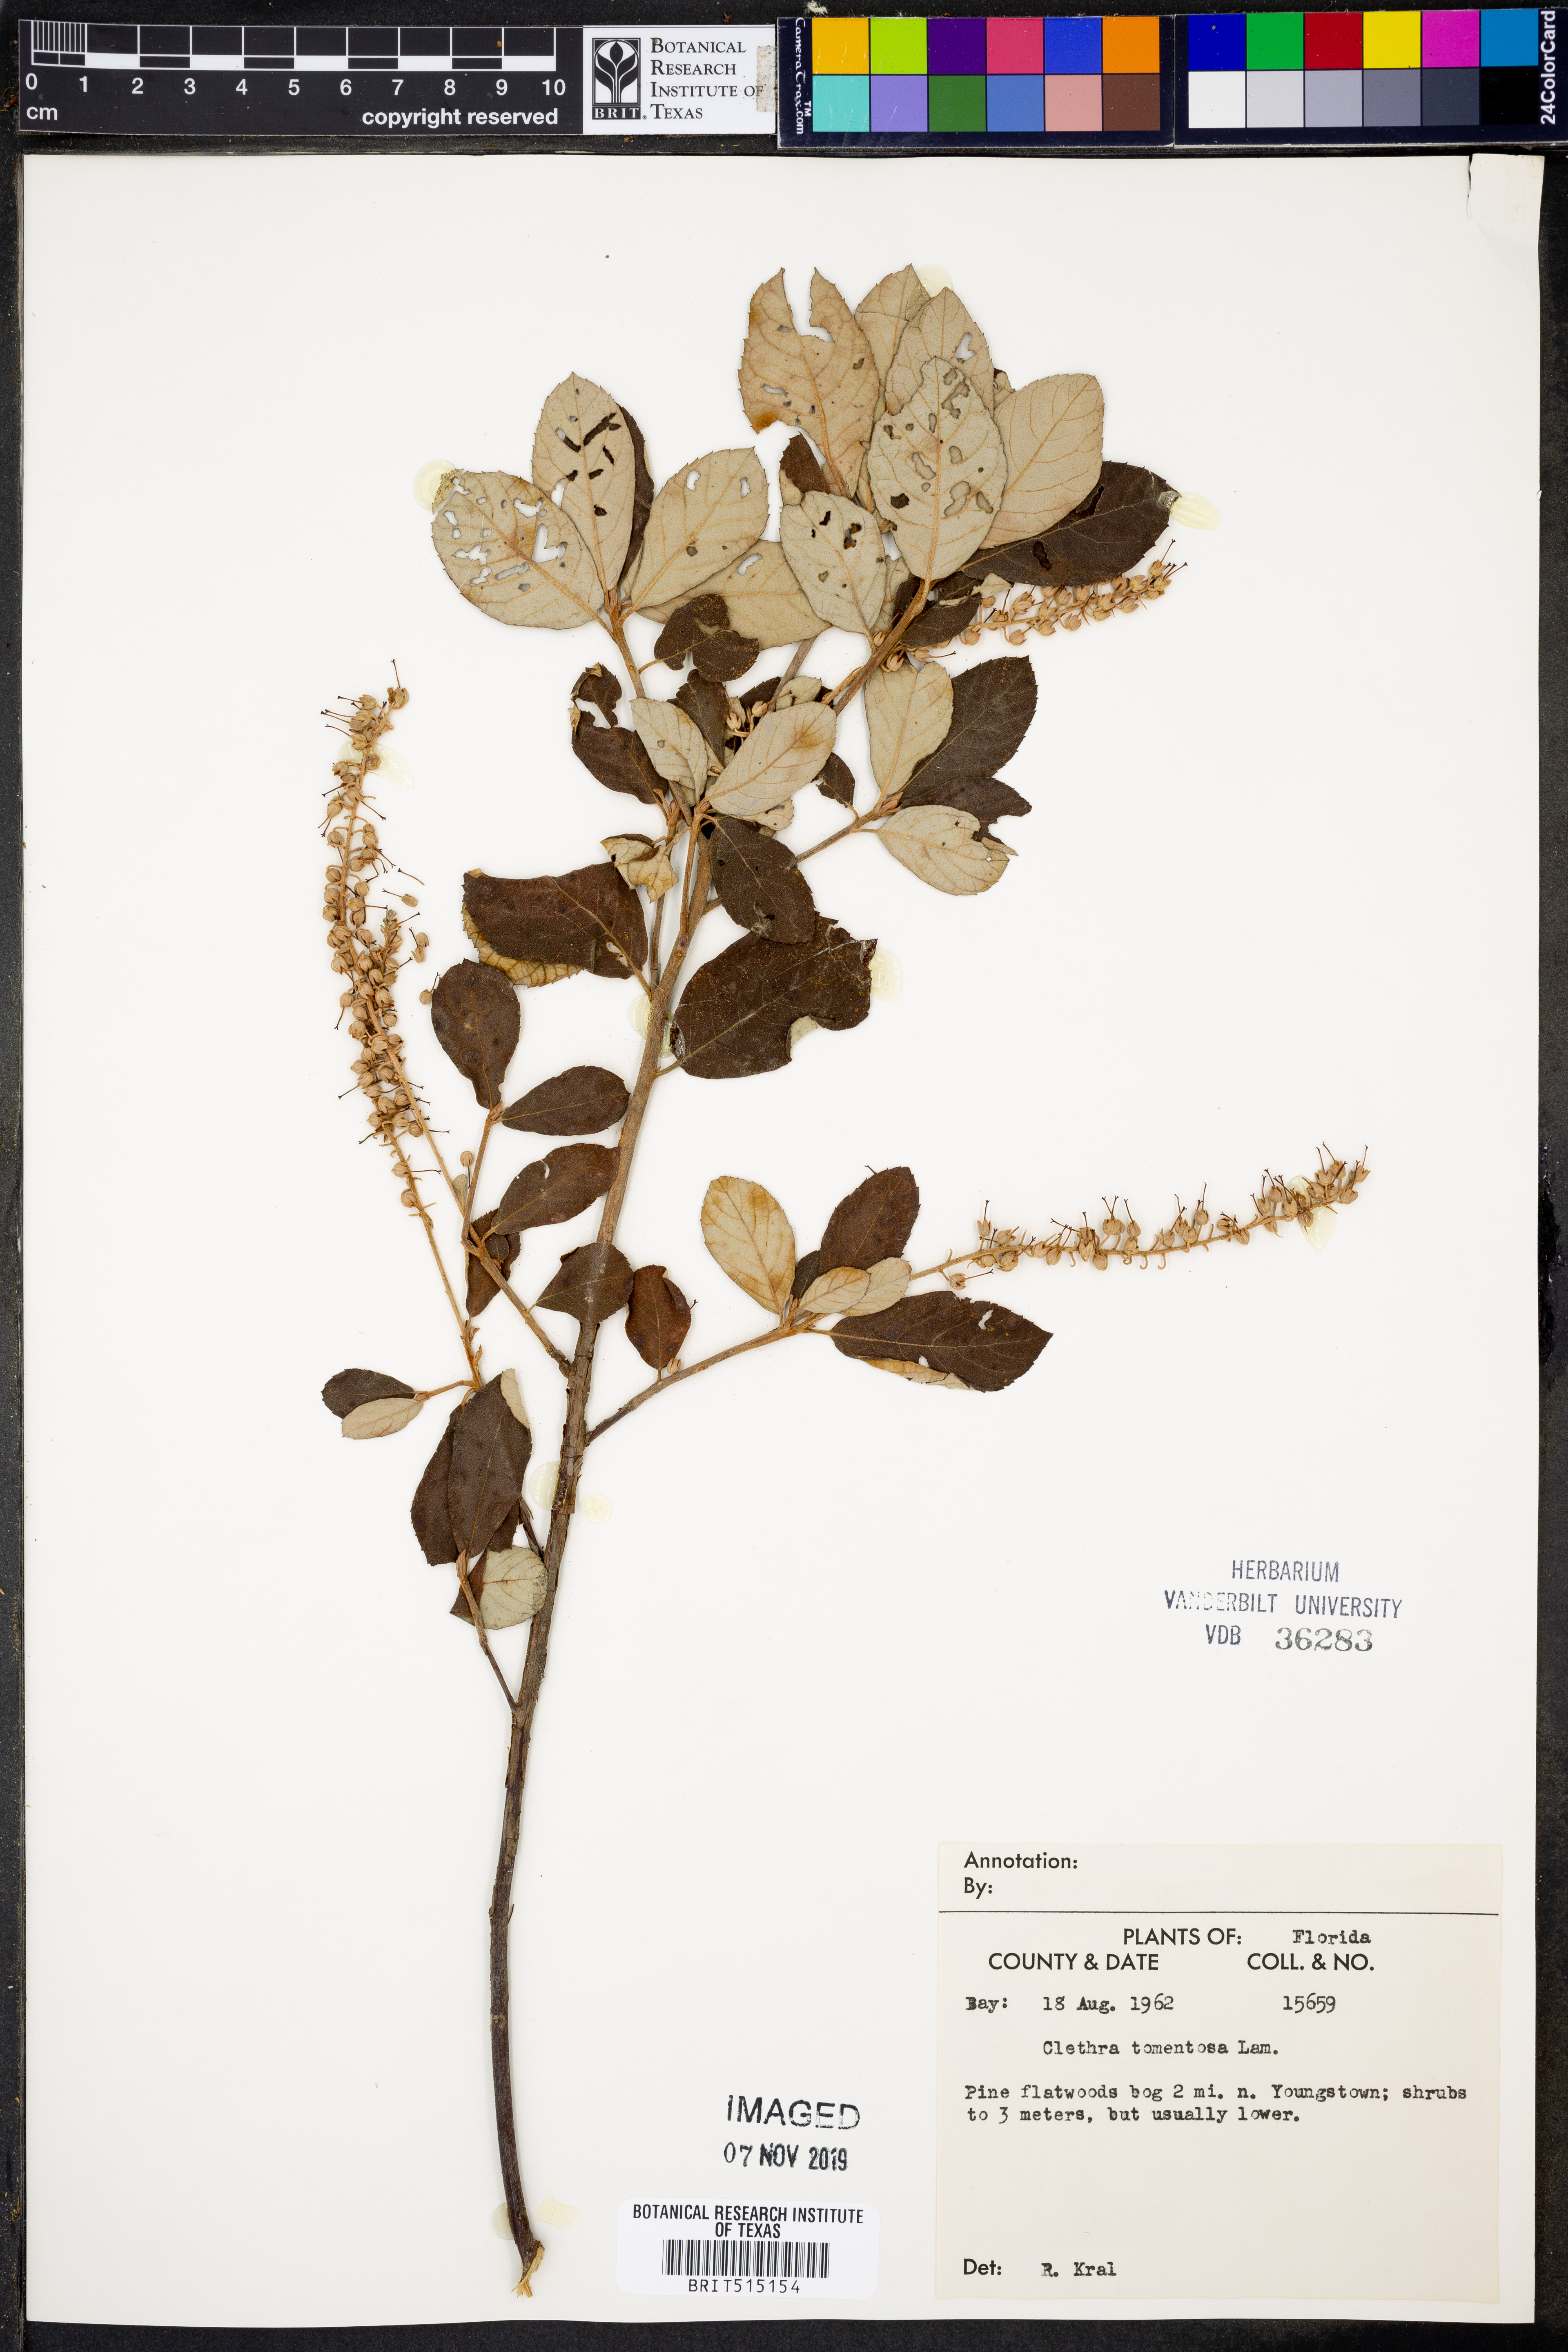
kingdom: Plantae
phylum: Tracheophyta
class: Magnoliopsida
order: Ericales
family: Clethraceae
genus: Clethra
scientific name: Clethra tomentosa
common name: Downy sweet pepperbush
